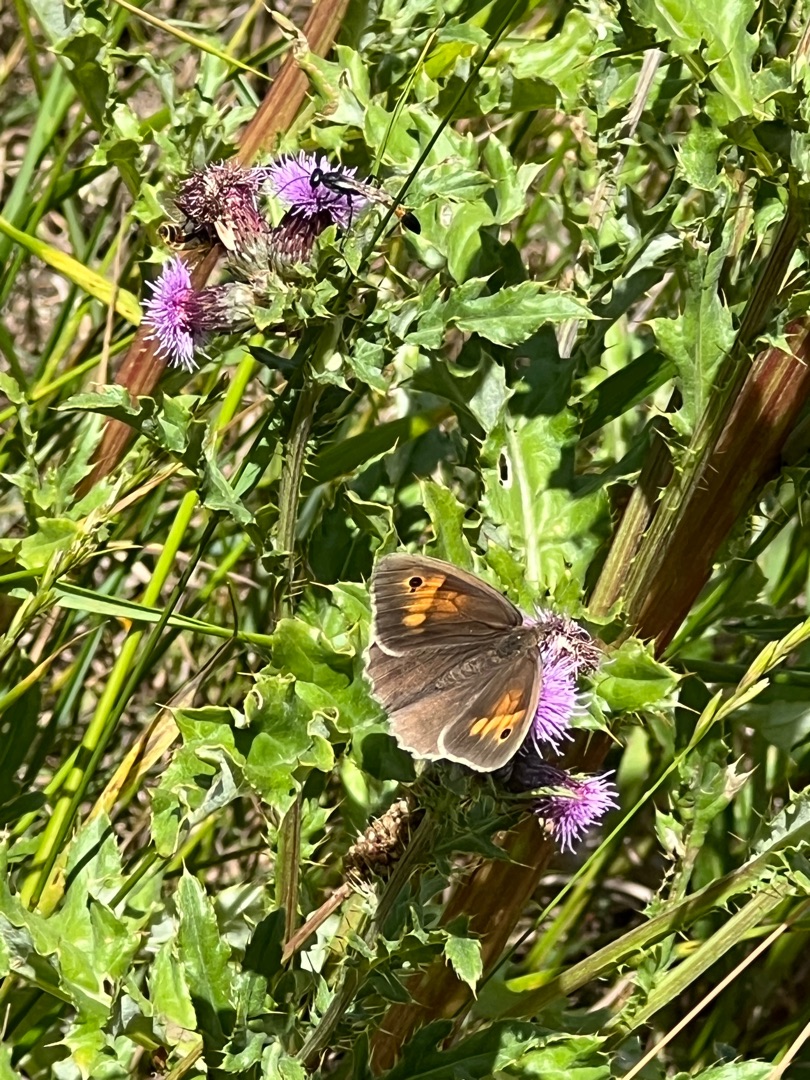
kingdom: Animalia
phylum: Arthropoda
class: Insecta
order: Lepidoptera
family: Nymphalidae
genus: Maniola
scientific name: Maniola jurtina
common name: Græsrandøje
